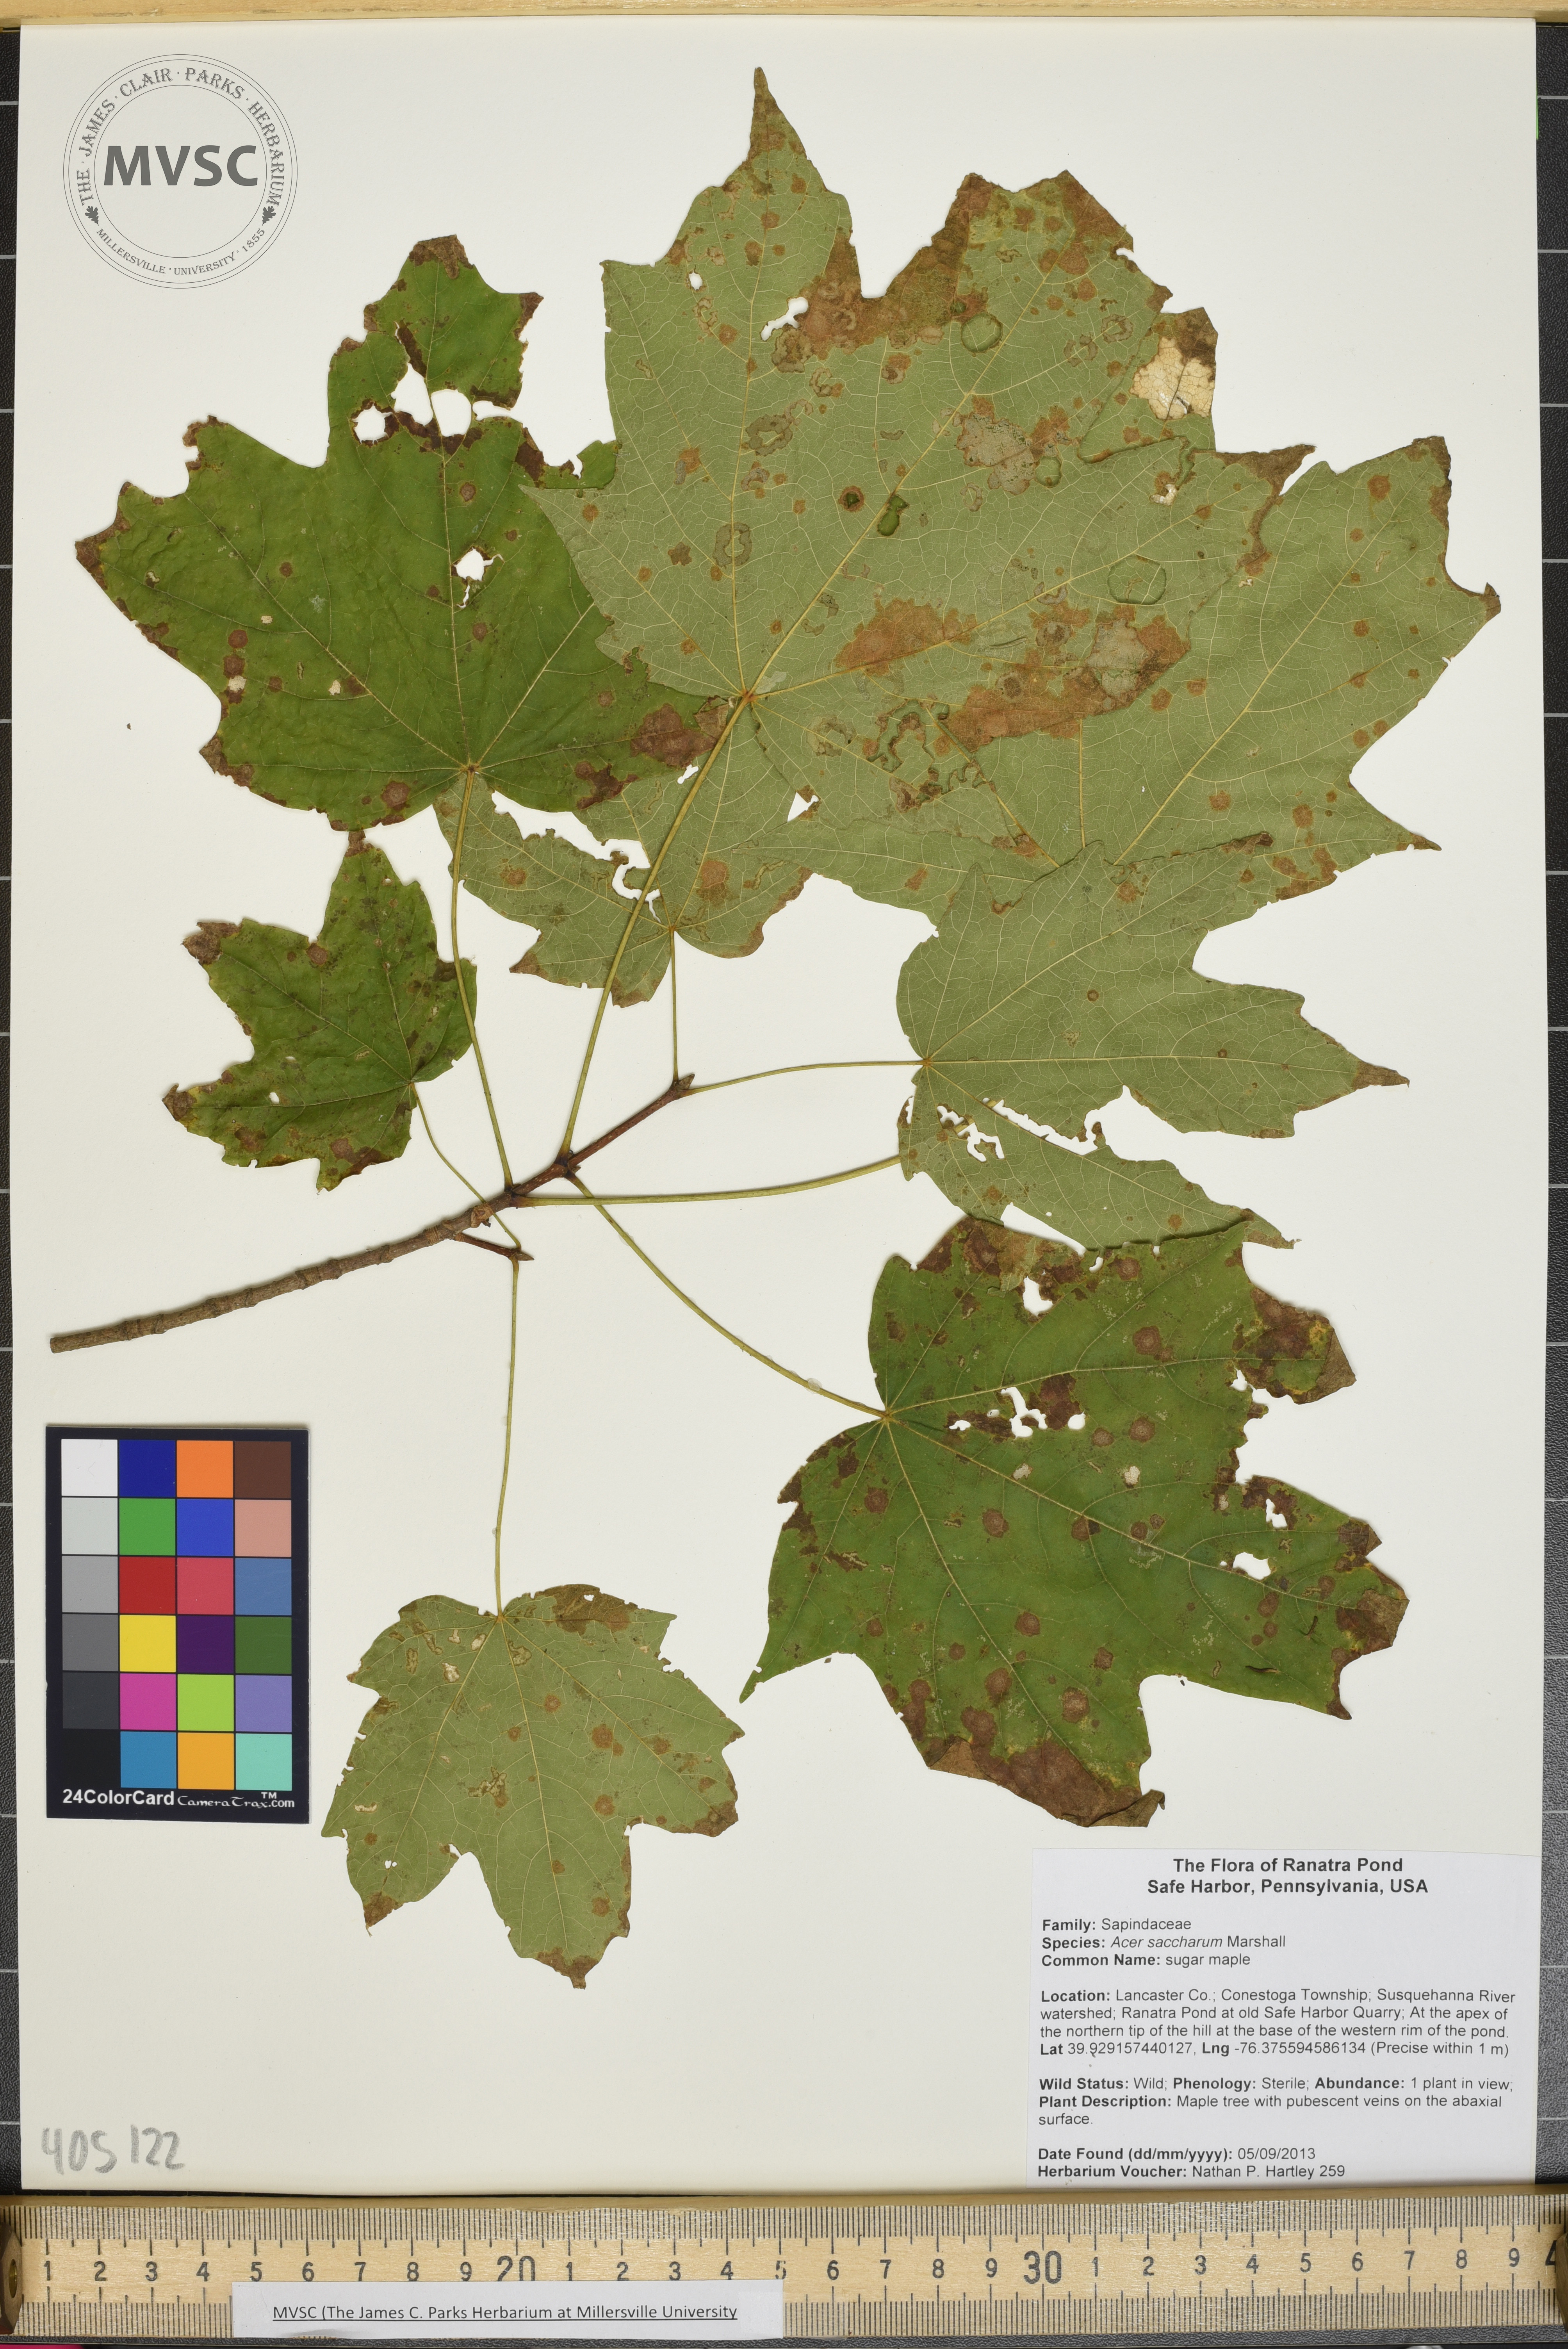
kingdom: Plantae
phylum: Tracheophyta
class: Magnoliopsida
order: Sapindales
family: Sapindaceae
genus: Acer
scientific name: Acer saccharum
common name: sugar maple
